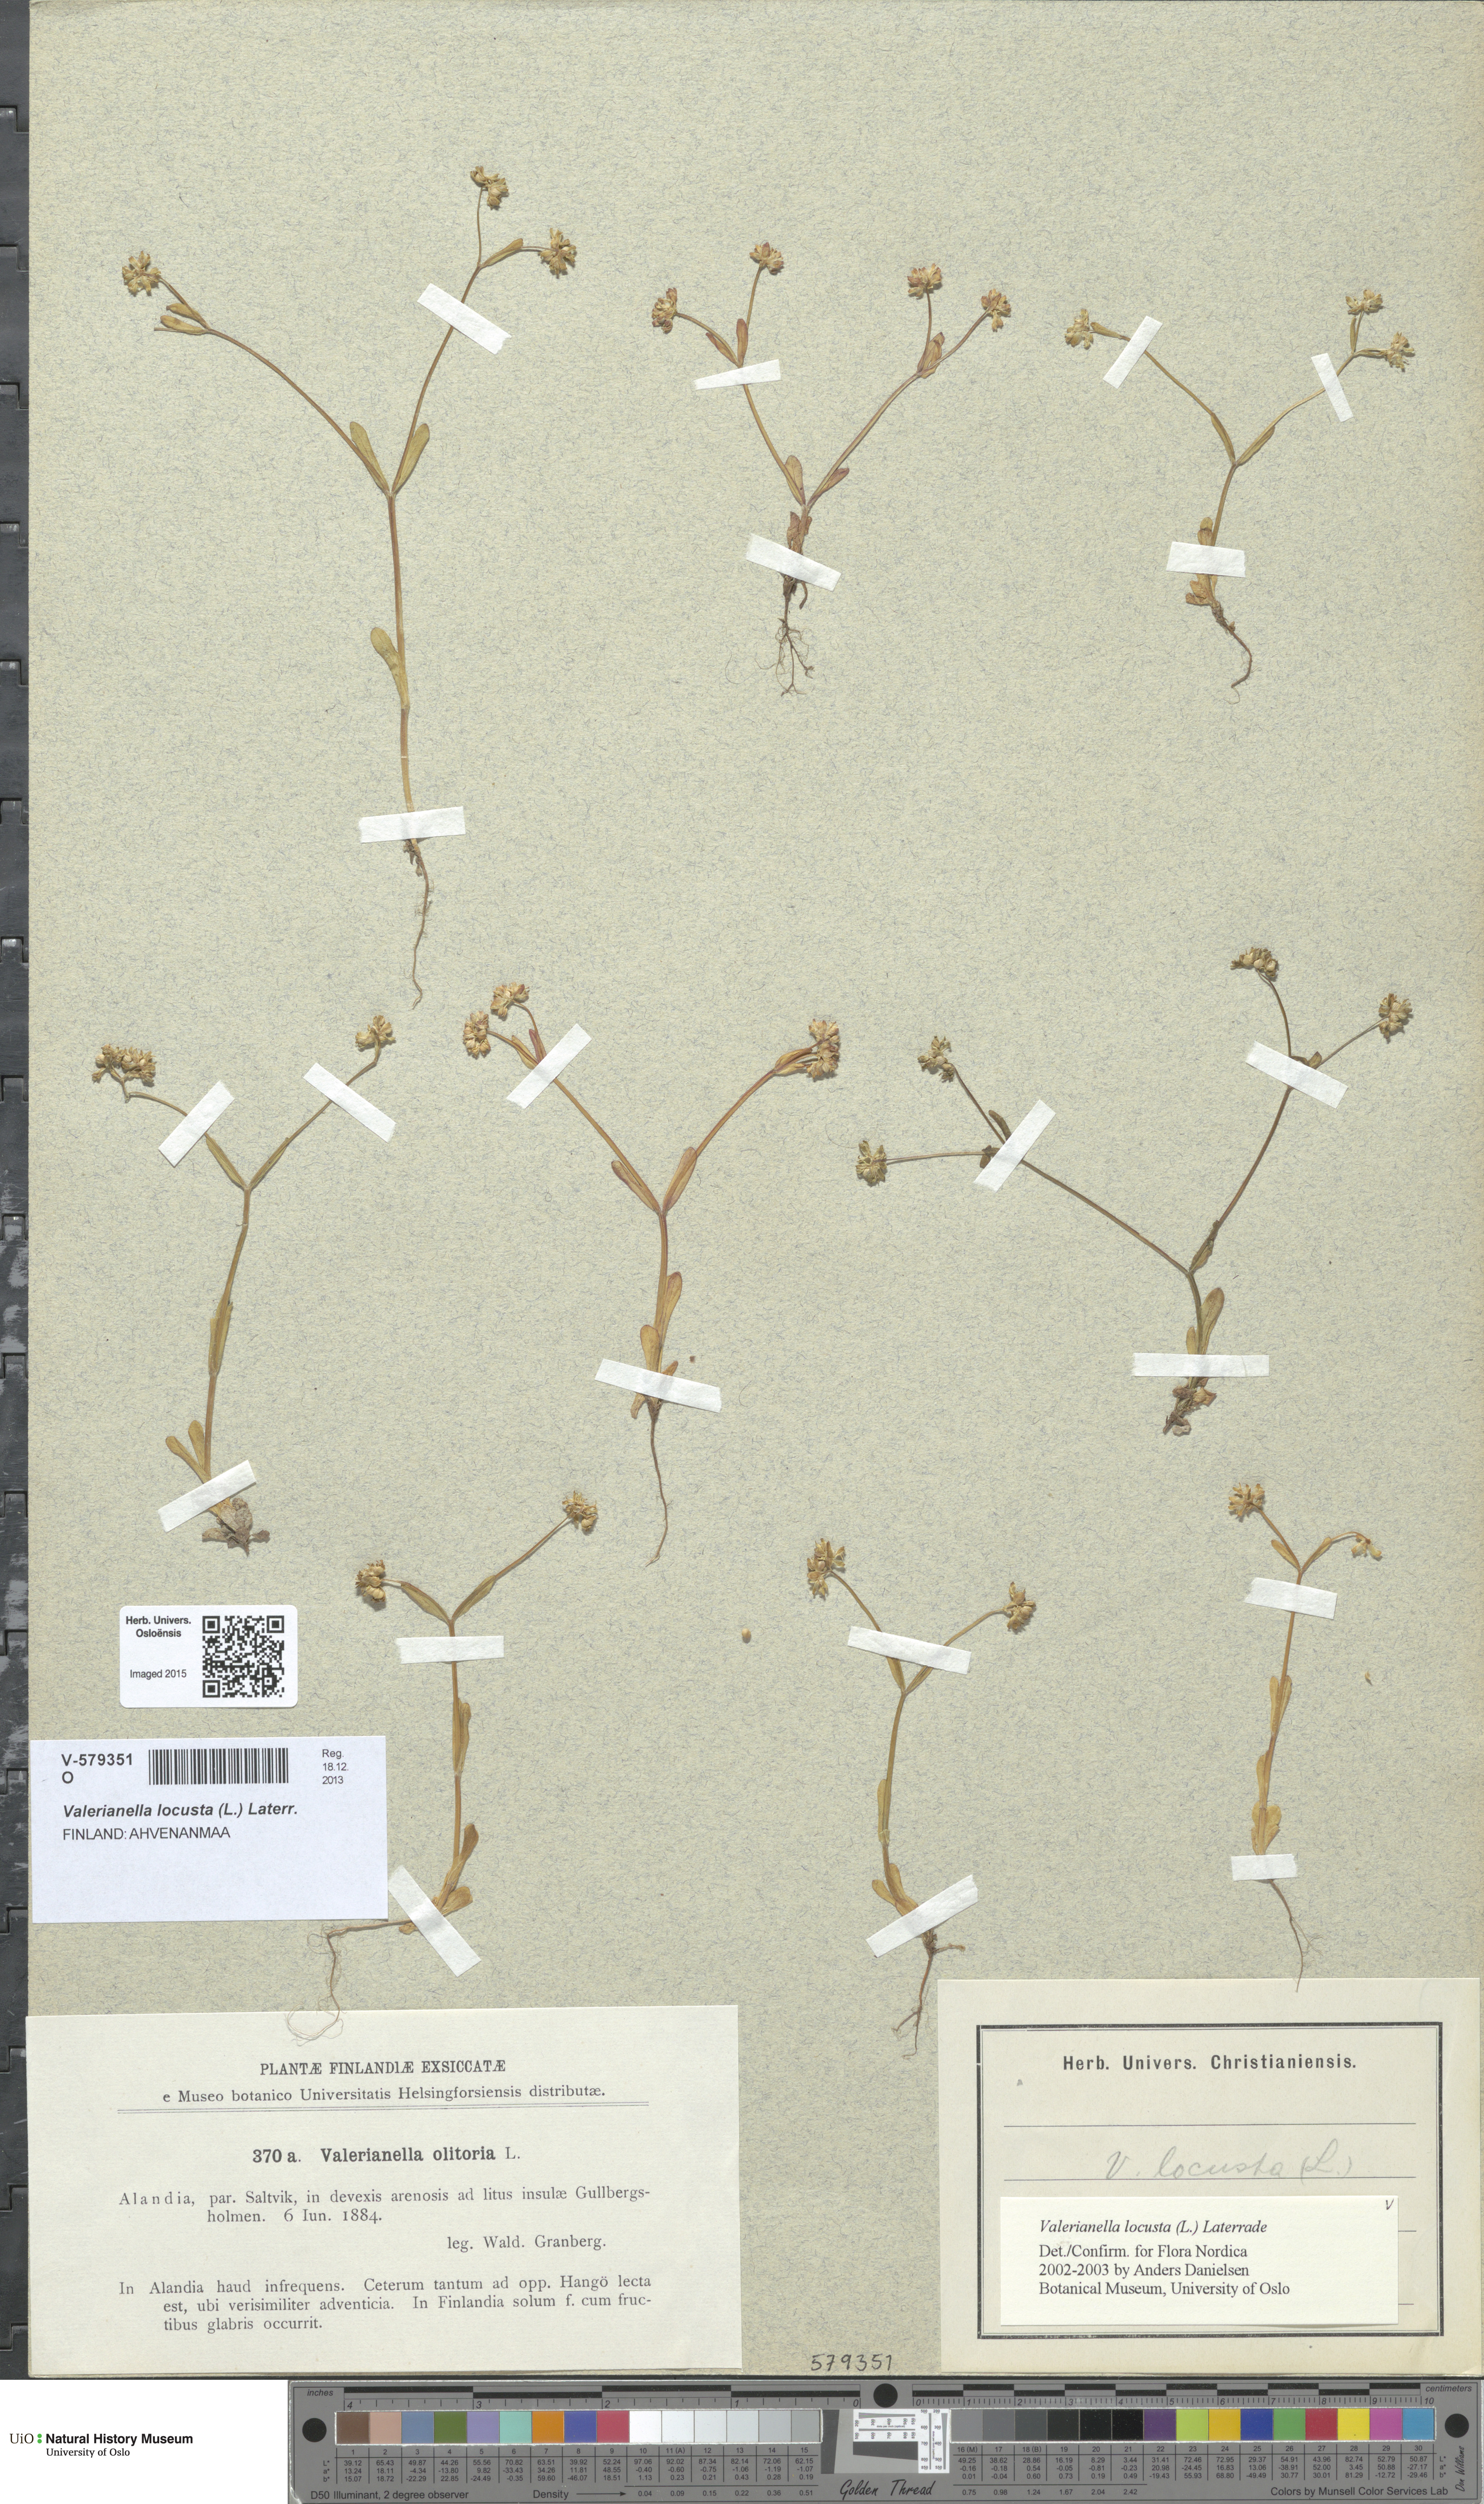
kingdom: Plantae
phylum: Tracheophyta
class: Magnoliopsida
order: Dipsacales
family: Caprifoliaceae
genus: Valerianella
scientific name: Valerianella locusta
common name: Common cornsalad
